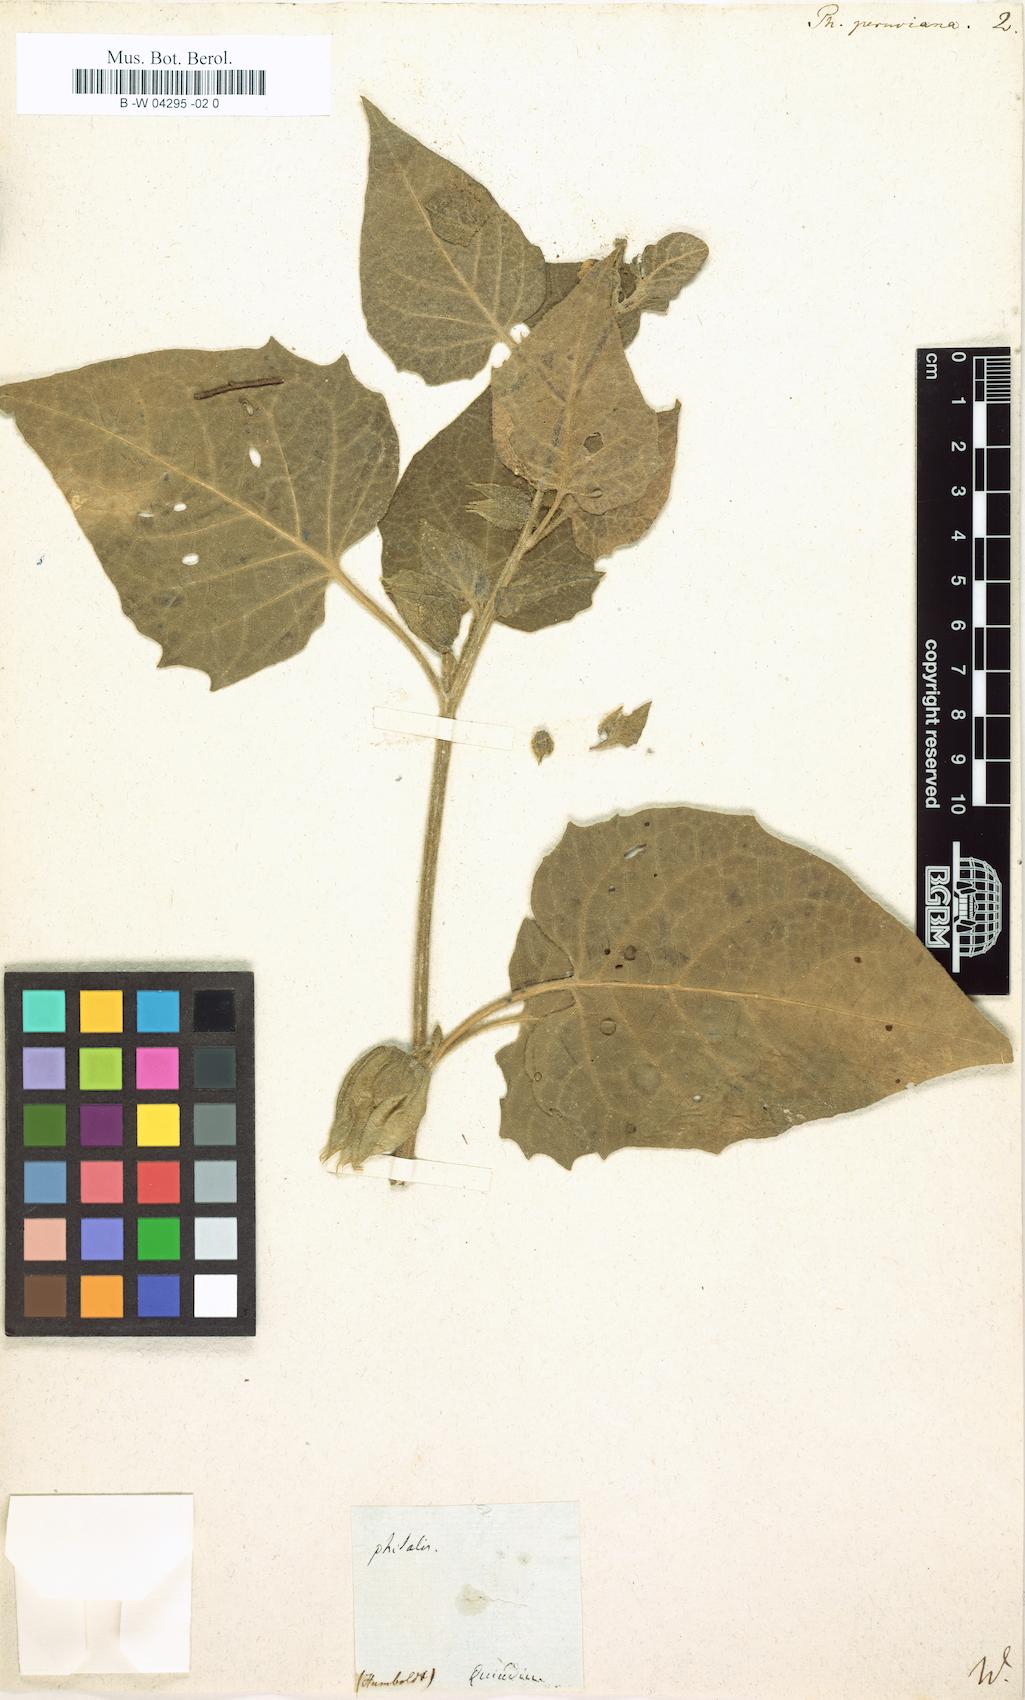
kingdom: Plantae
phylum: Tracheophyta
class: Magnoliopsida
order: Solanales
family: Solanaceae
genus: Physalis
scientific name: Physalis peruviana
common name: Cape-gooseberry
